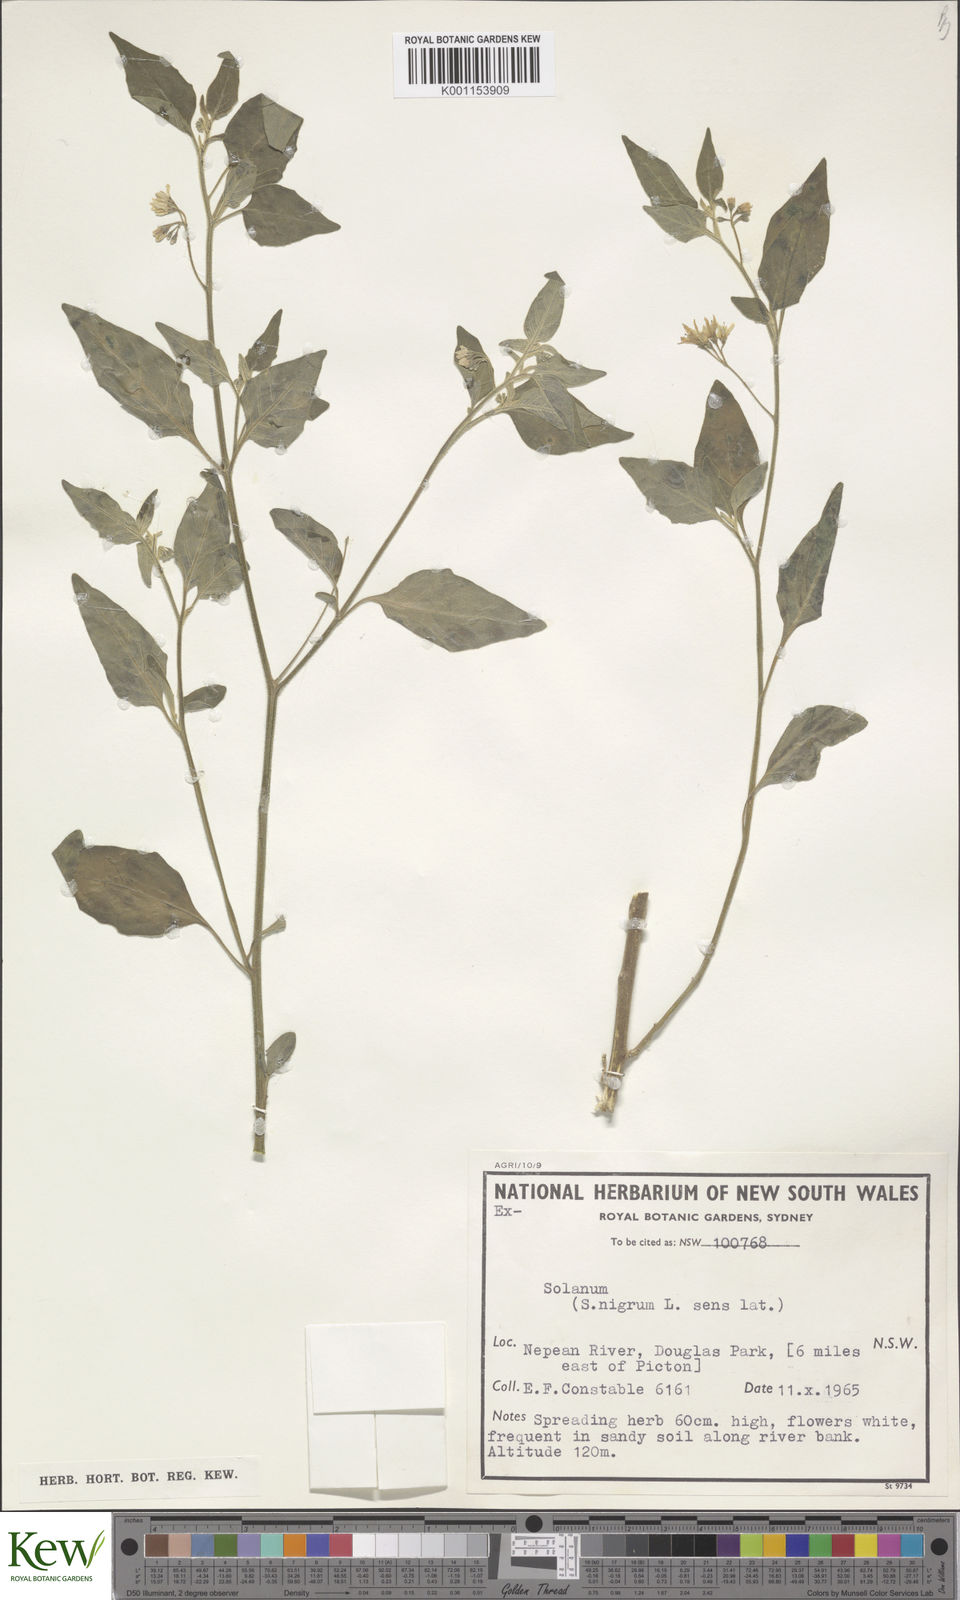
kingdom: Plantae
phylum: Tracheophyta
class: Magnoliopsida
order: Solanales
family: Solanaceae
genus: Solanum
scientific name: Solanum chenopodioides
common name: Tall nightshade
